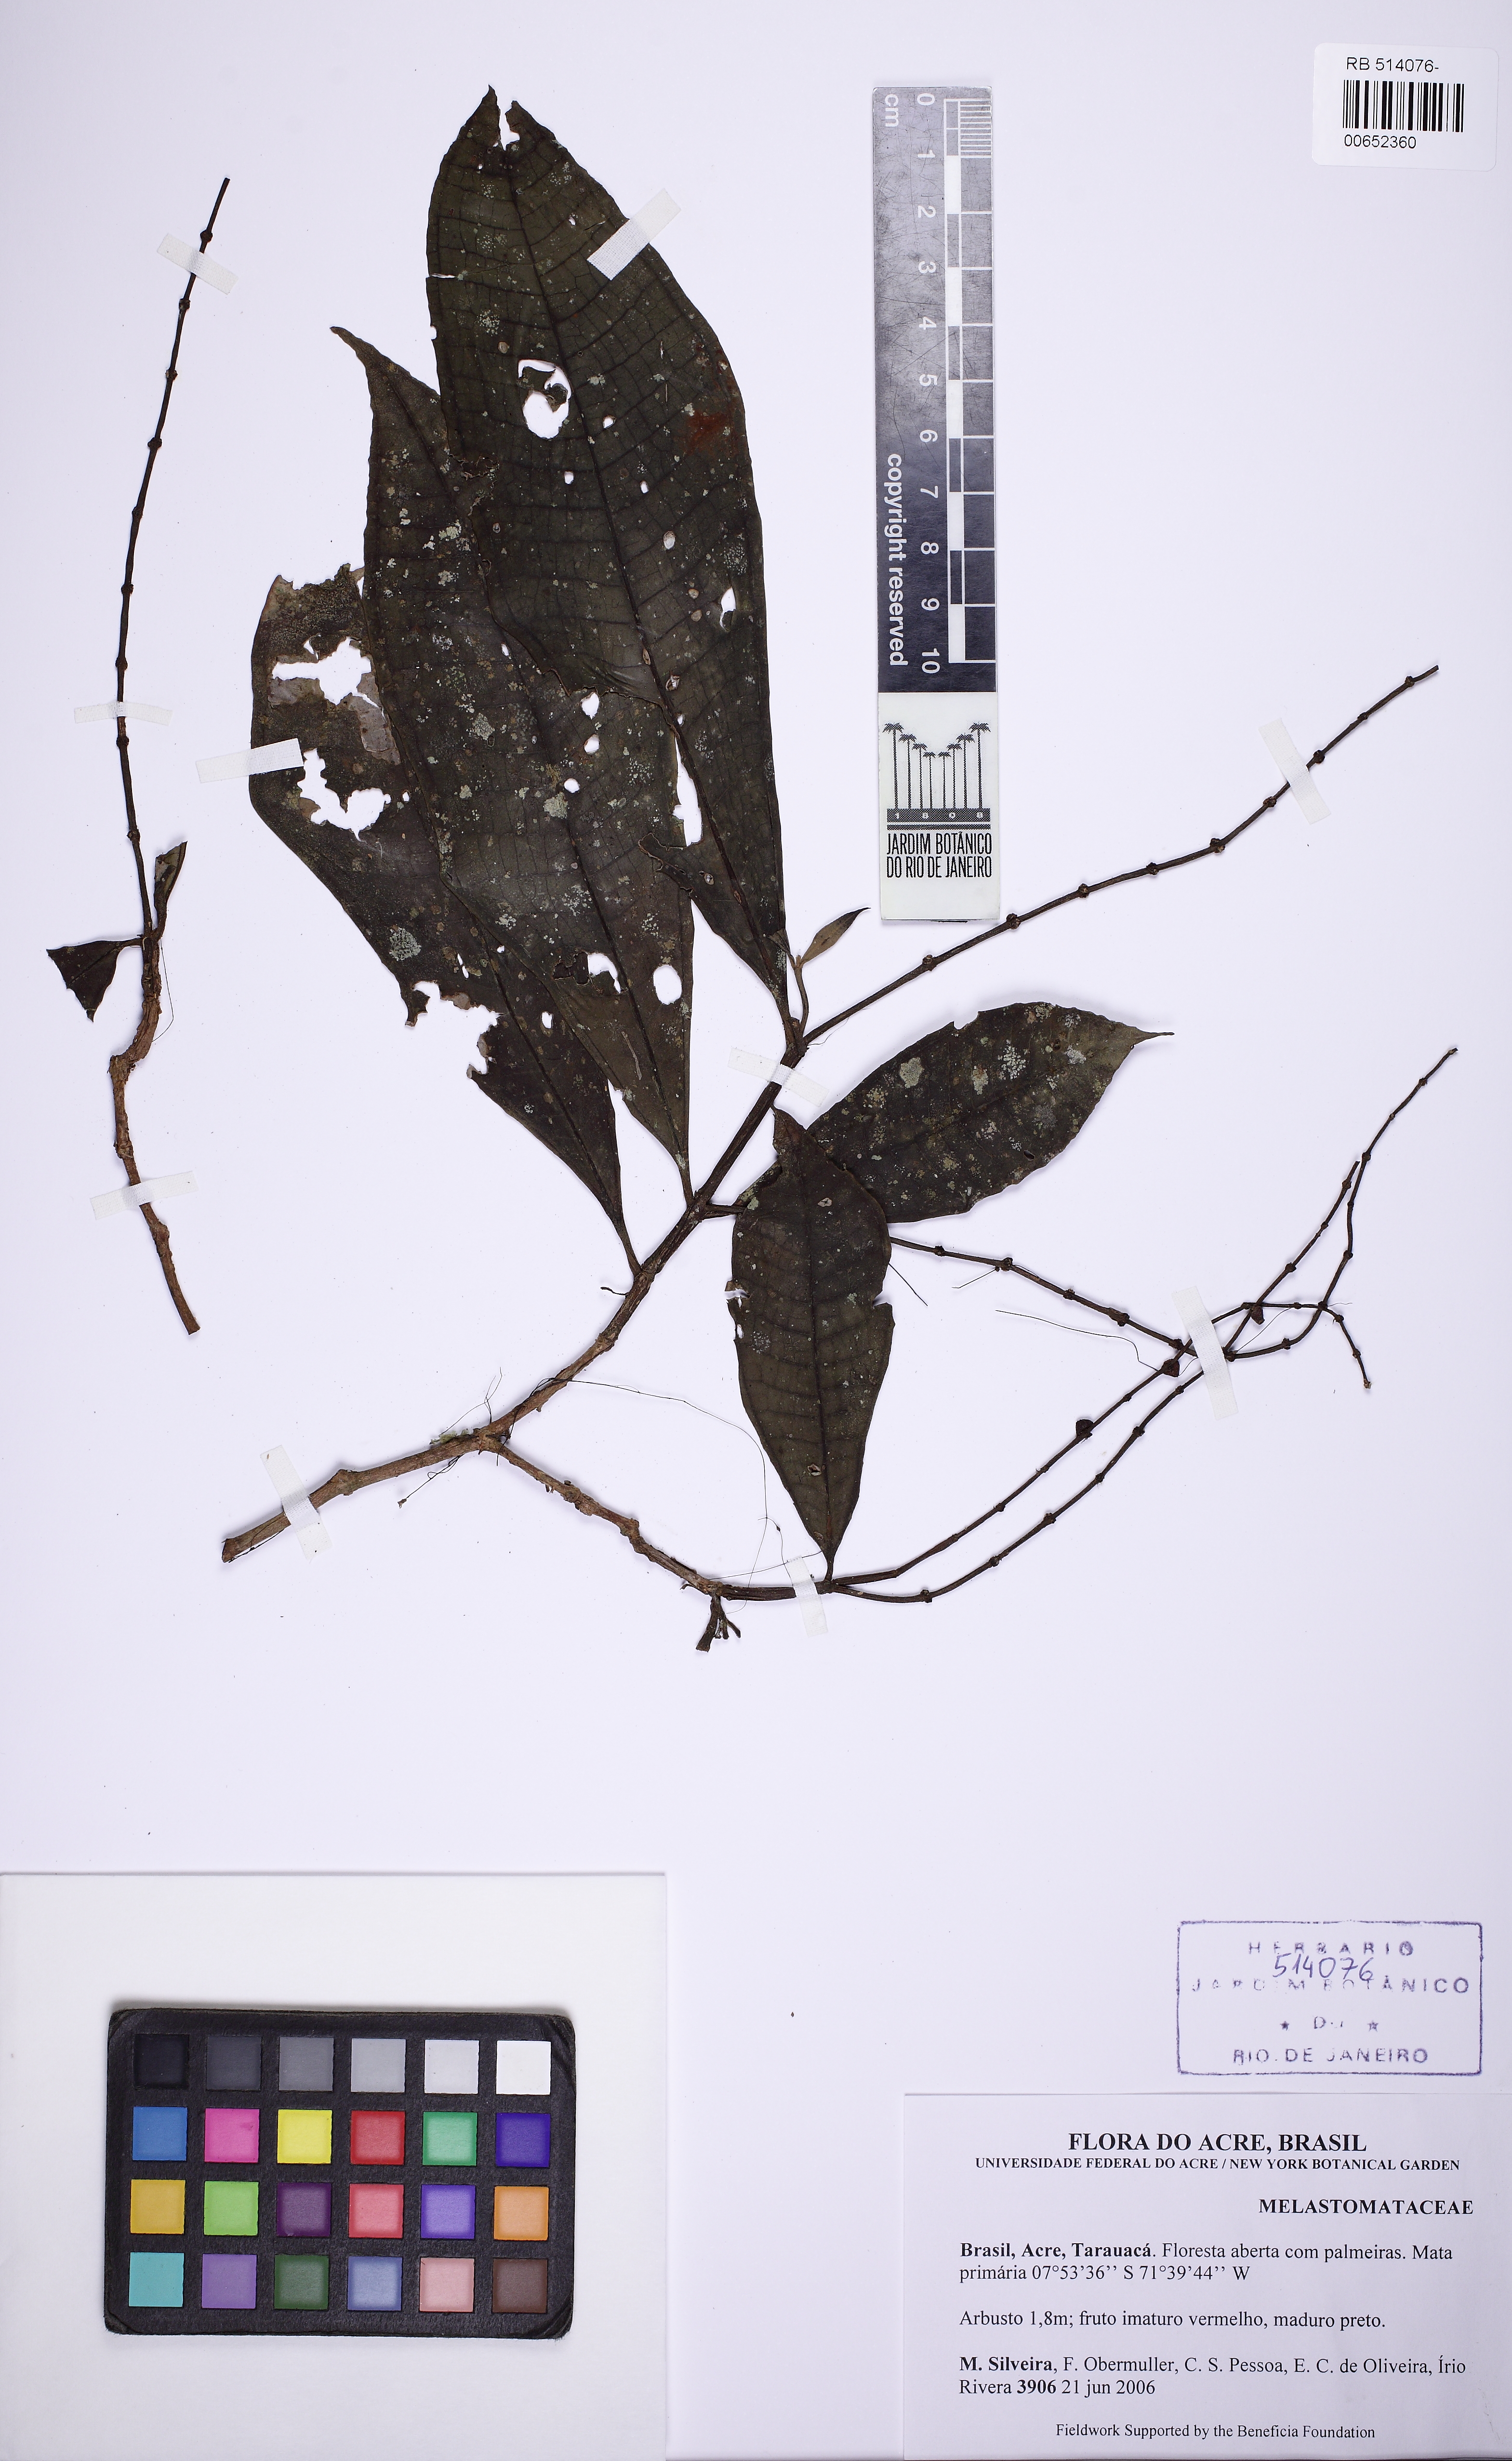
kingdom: Plantae
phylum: Tracheophyta
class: Magnoliopsida
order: Myrtales
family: Melastomataceae
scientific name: Melastomataceae
